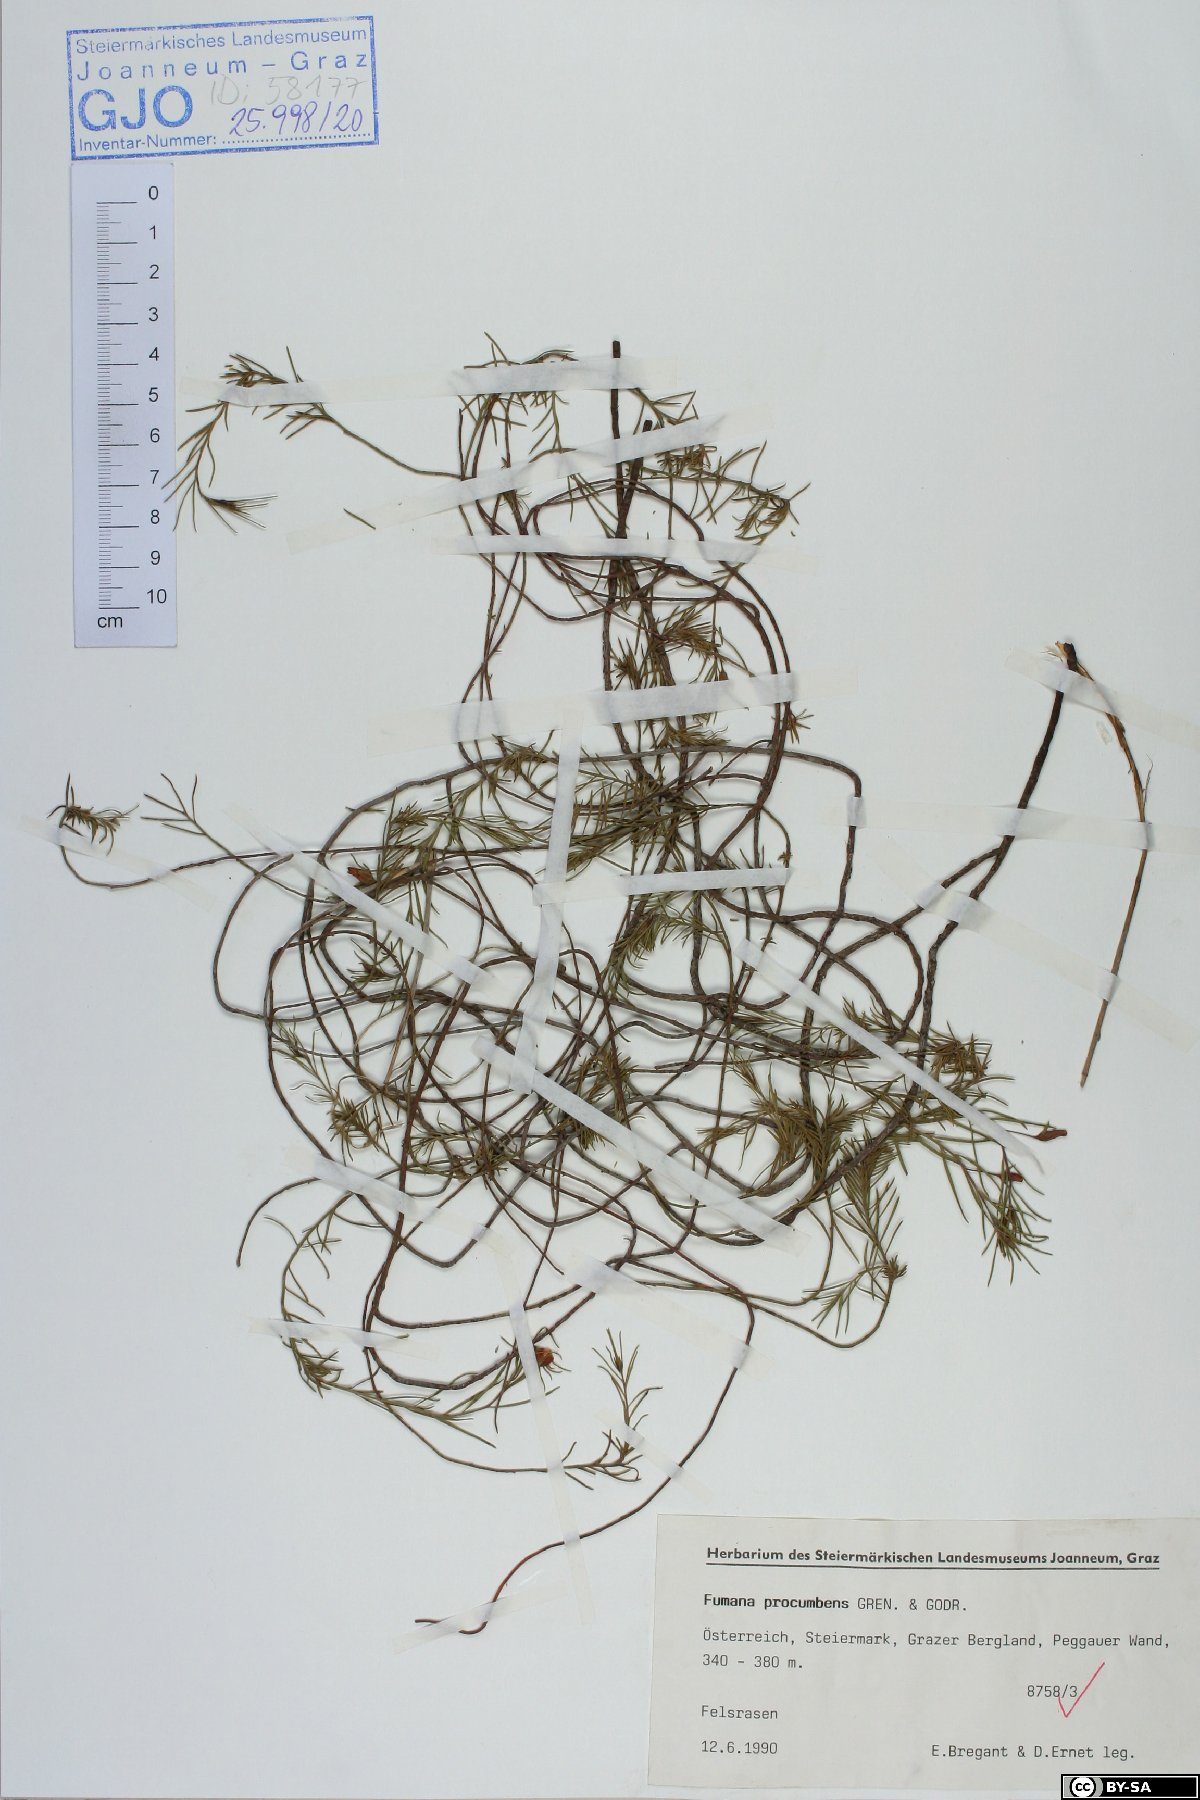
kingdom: Plantae
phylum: Tracheophyta
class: Magnoliopsida
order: Malvales
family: Cistaceae
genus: Fumana
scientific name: Fumana procumbens
